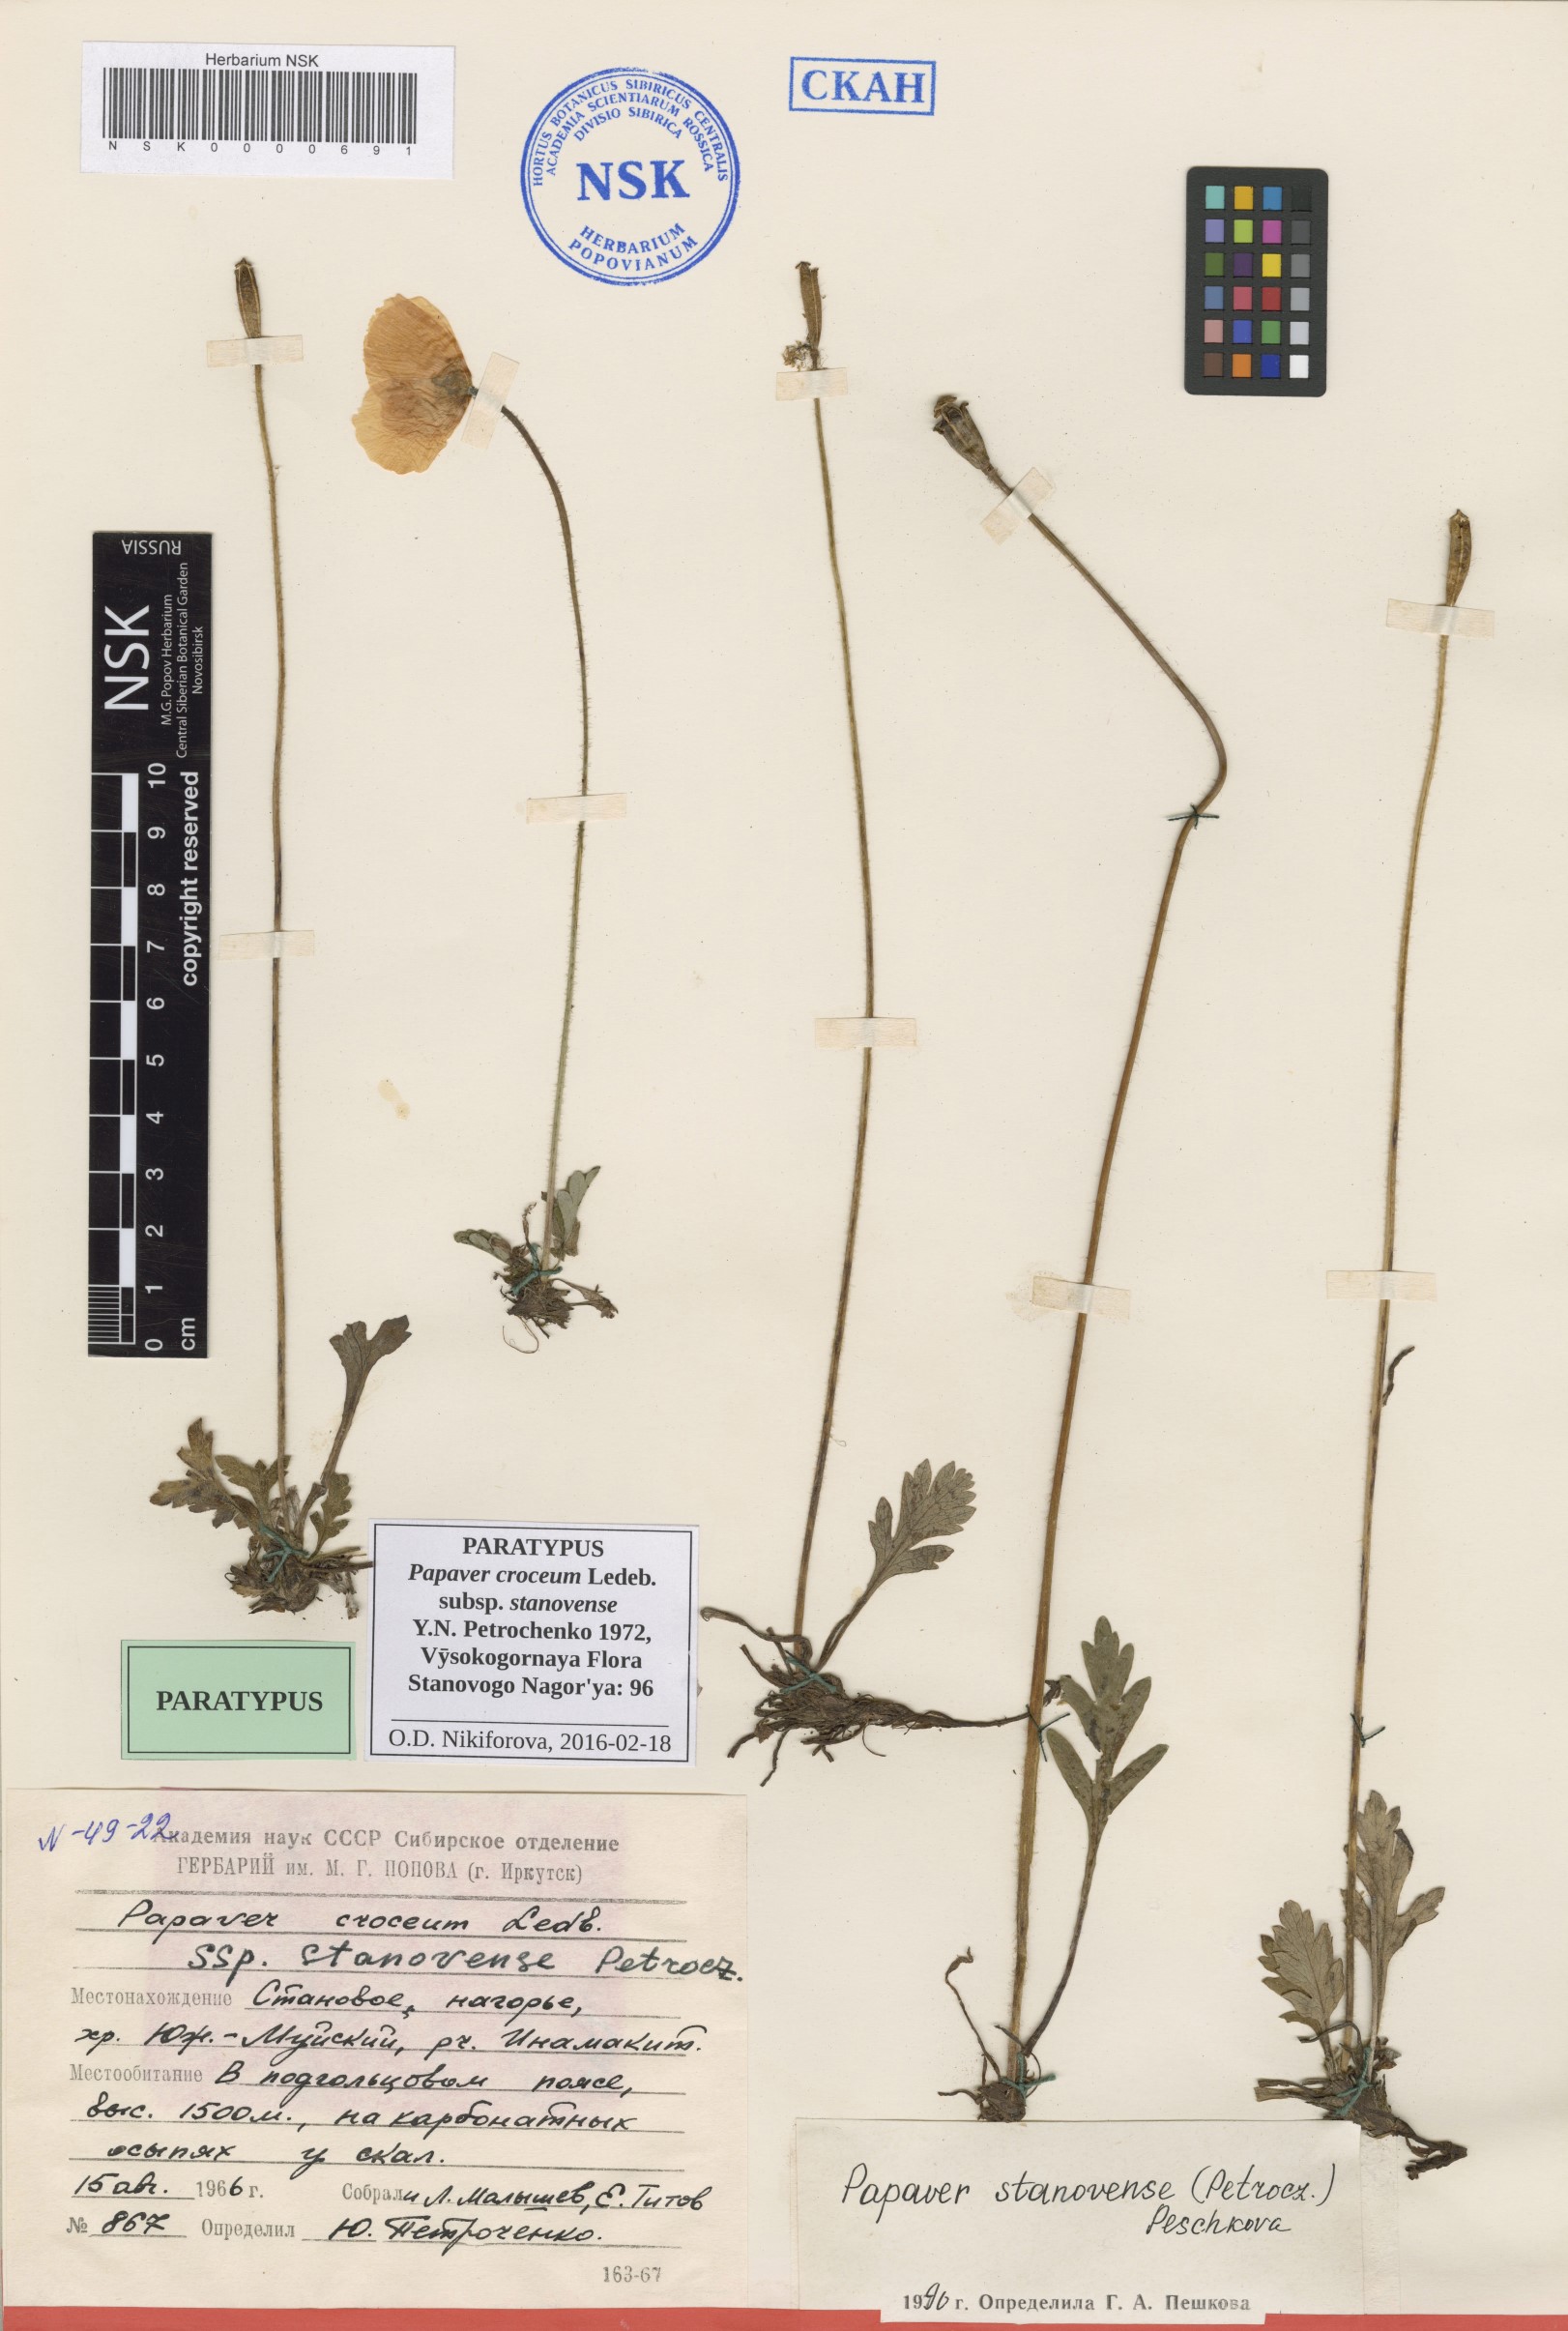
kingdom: Plantae
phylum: Tracheophyta
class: Magnoliopsida
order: Ranunculales
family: Papaveraceae
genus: Papaver
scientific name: Papaver stanovense
